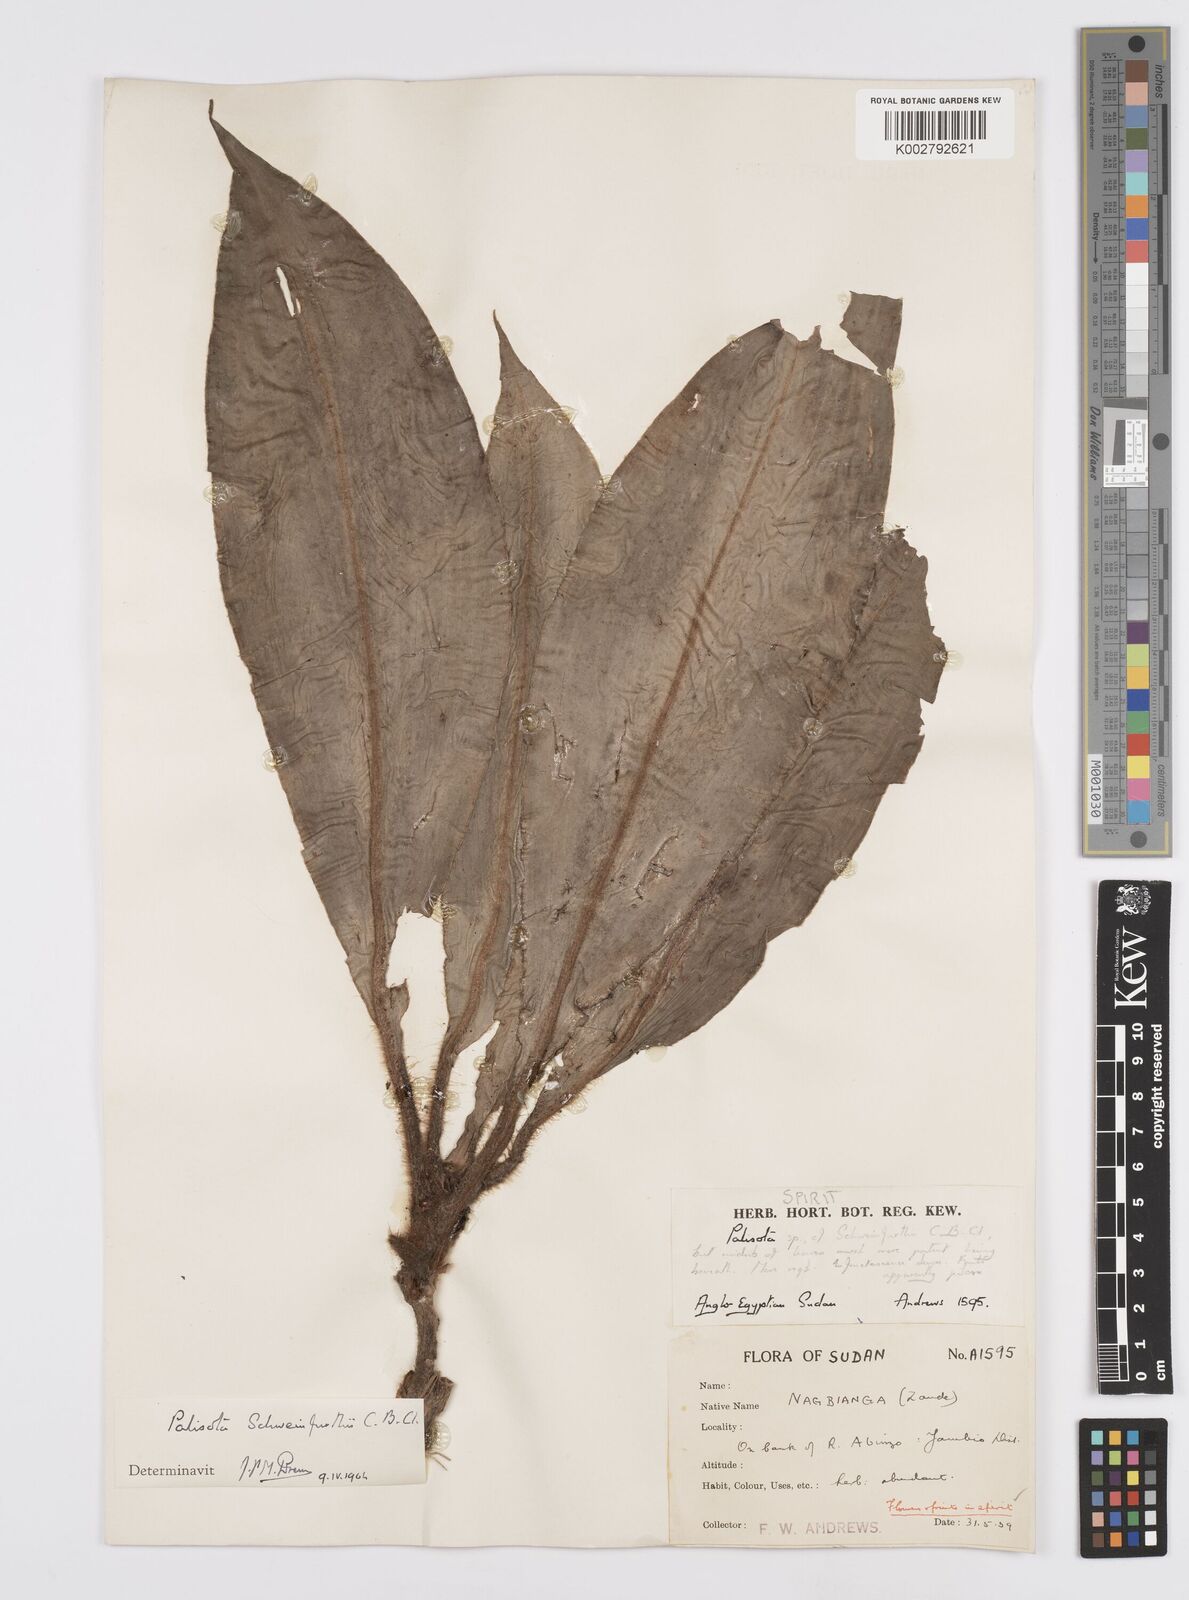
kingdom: Plantae
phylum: Tracheophyta
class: Liliopsida
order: Commelinales
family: Commelinaceae
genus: Palisota
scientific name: Palisota schweinfurthii
